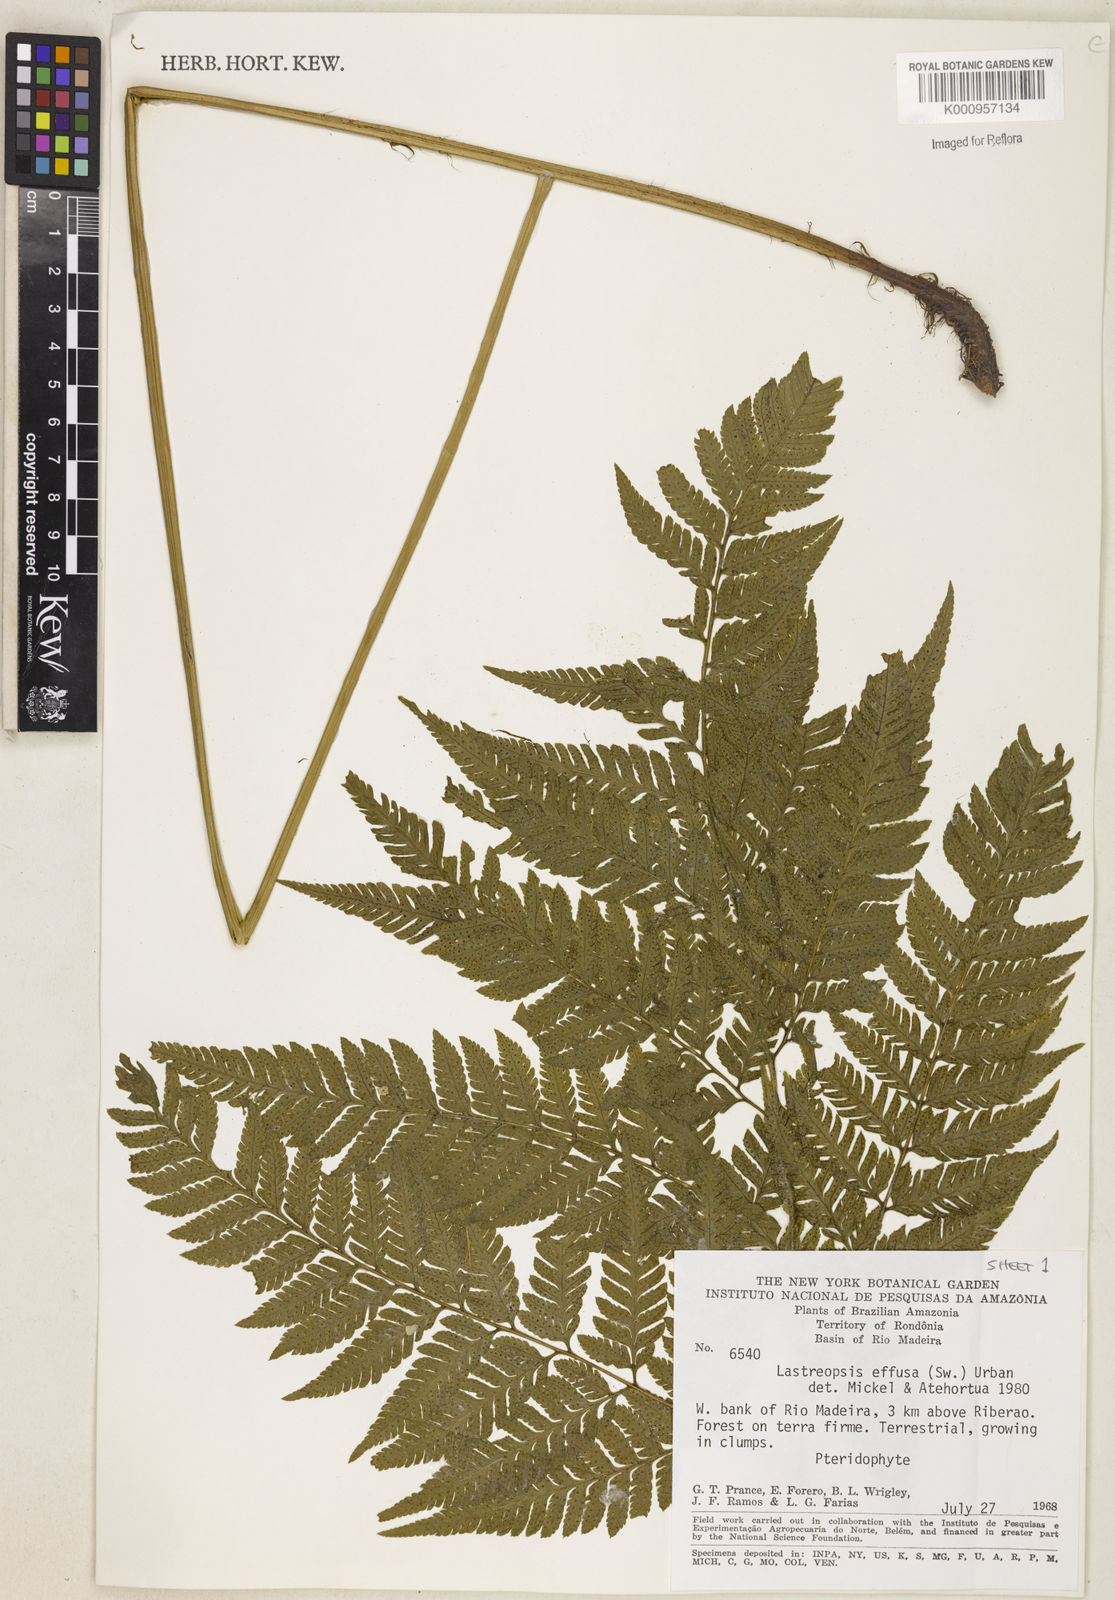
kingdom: Plantae
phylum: Tracheophyta
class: Polypodiopsida
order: Polypodiales
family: Dryopteridaceae
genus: Lastreopsis
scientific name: Lastreopsis
